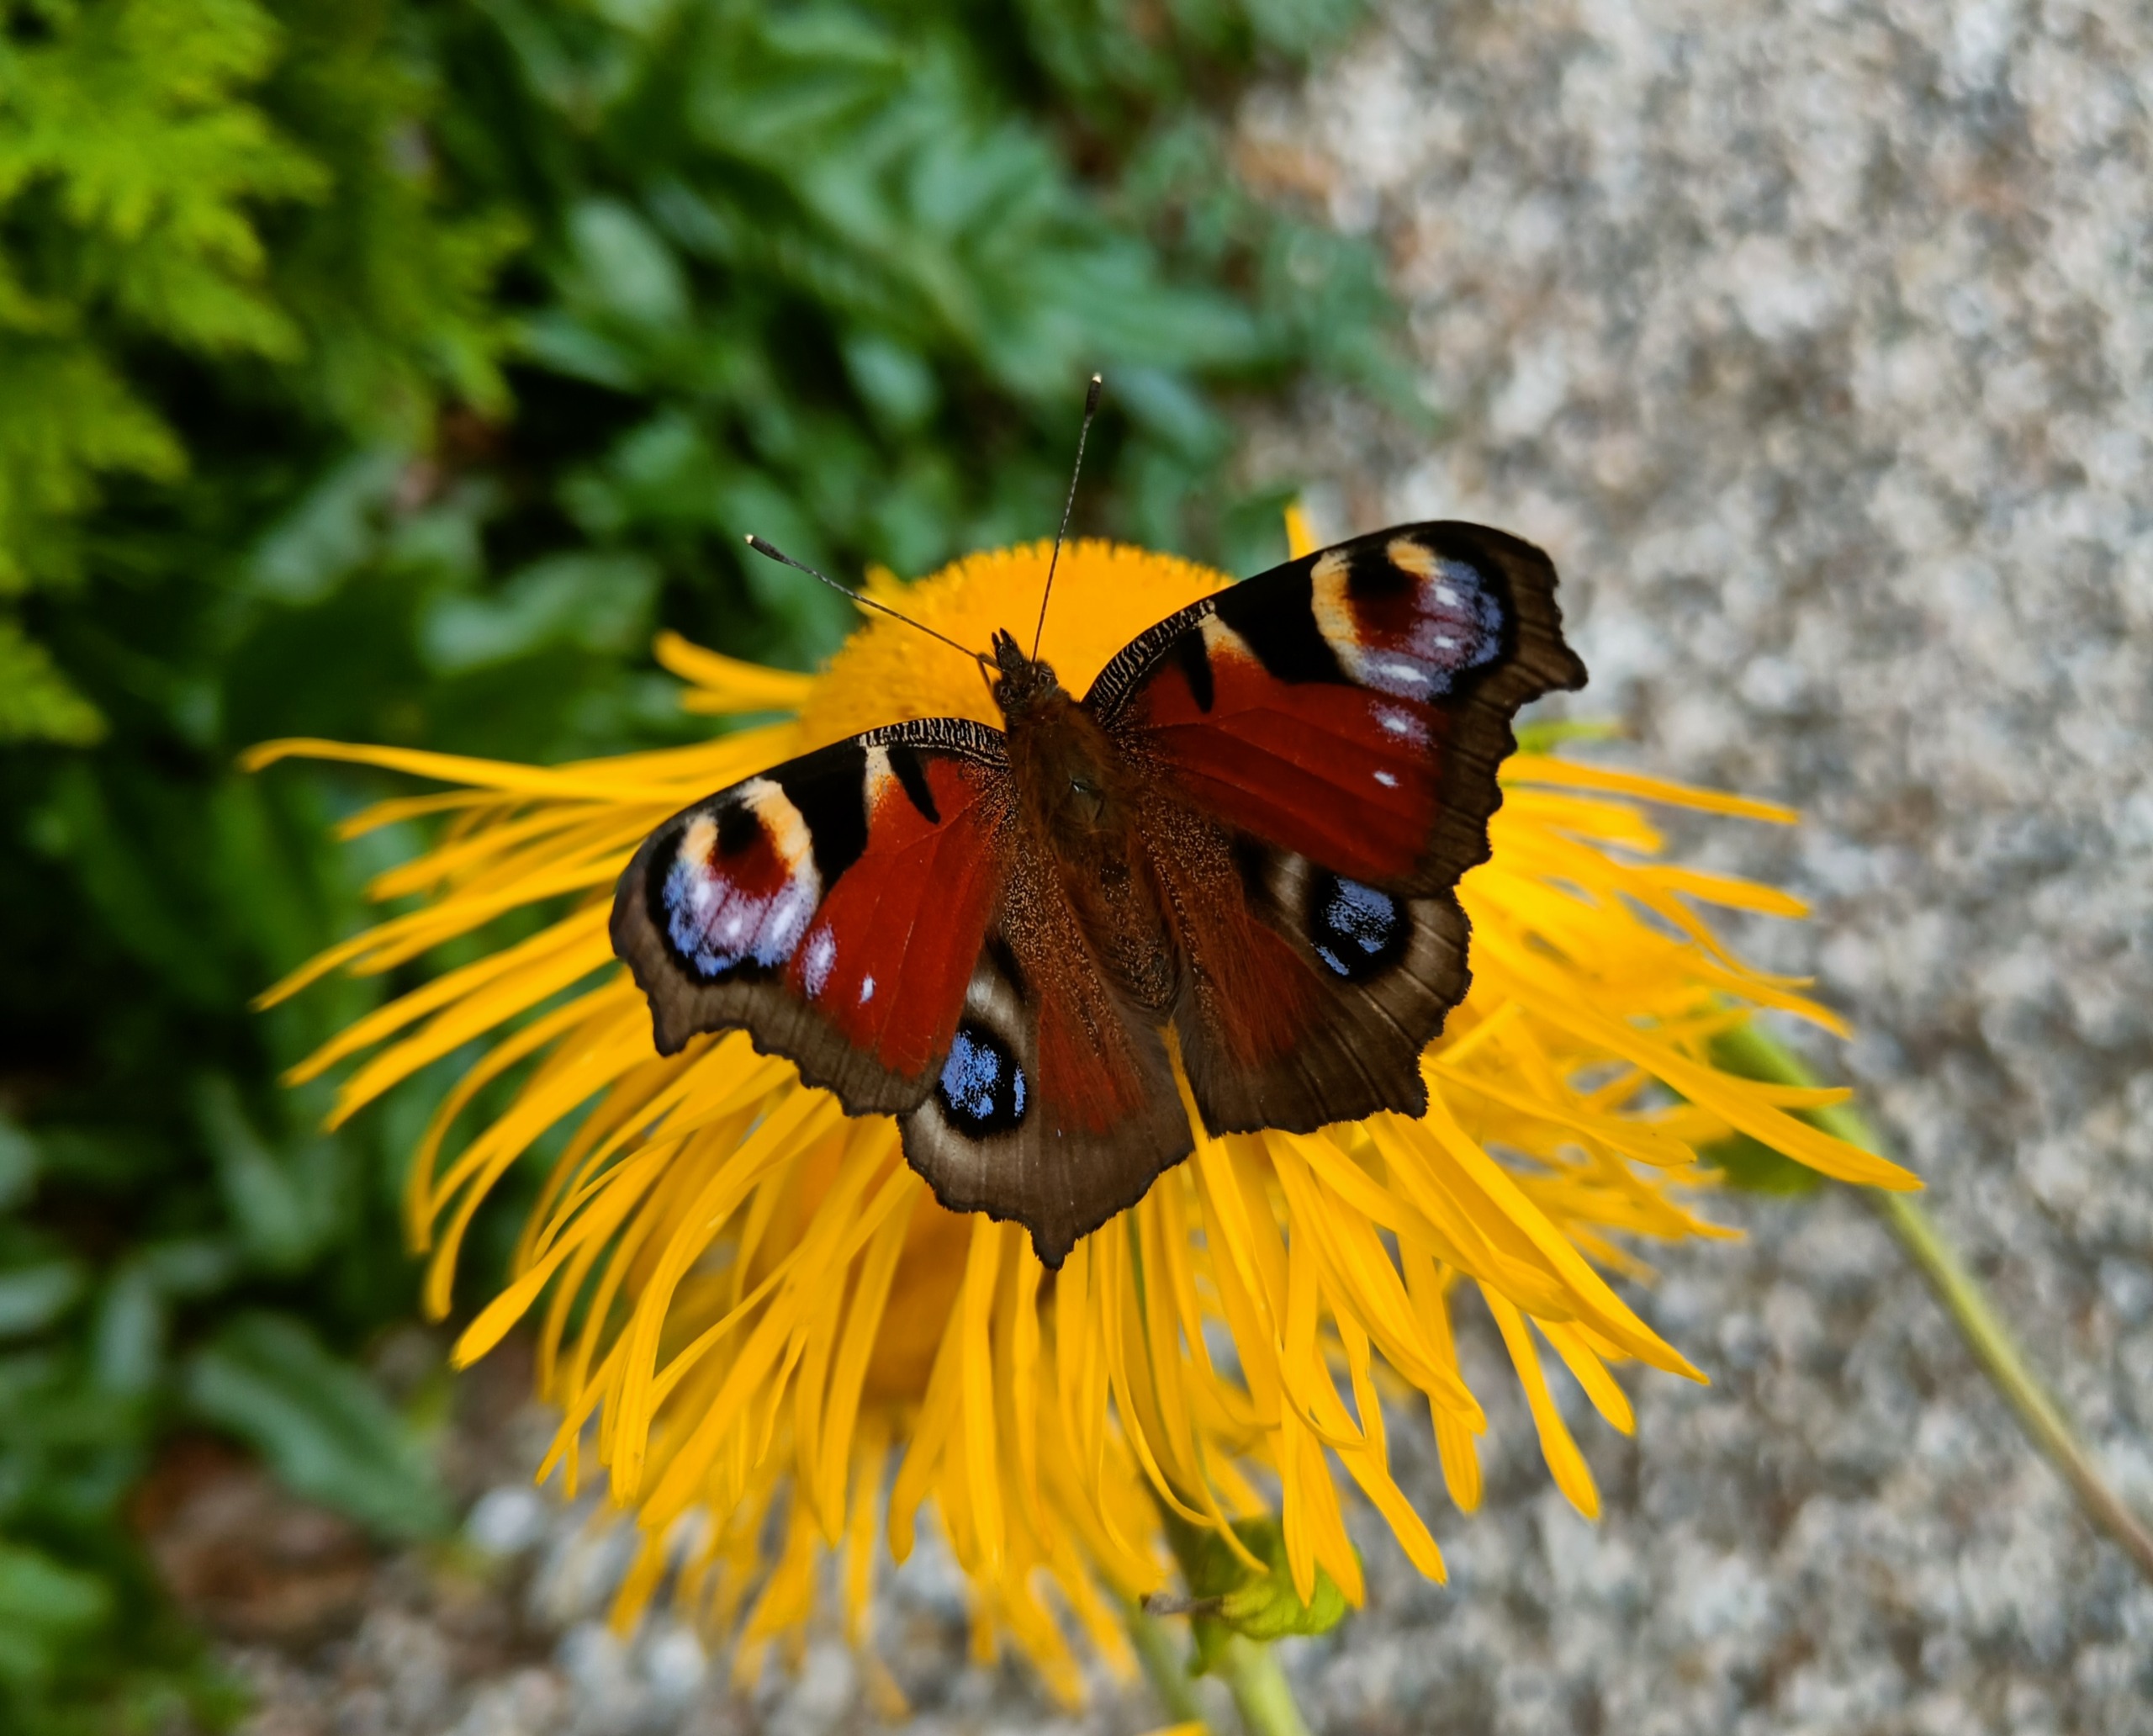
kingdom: Animalia
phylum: Arthropoda
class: Insecta
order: Lepidoptera
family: Nymphalidae
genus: Aglais
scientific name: Aglais io
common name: Dagpåfugleøje
